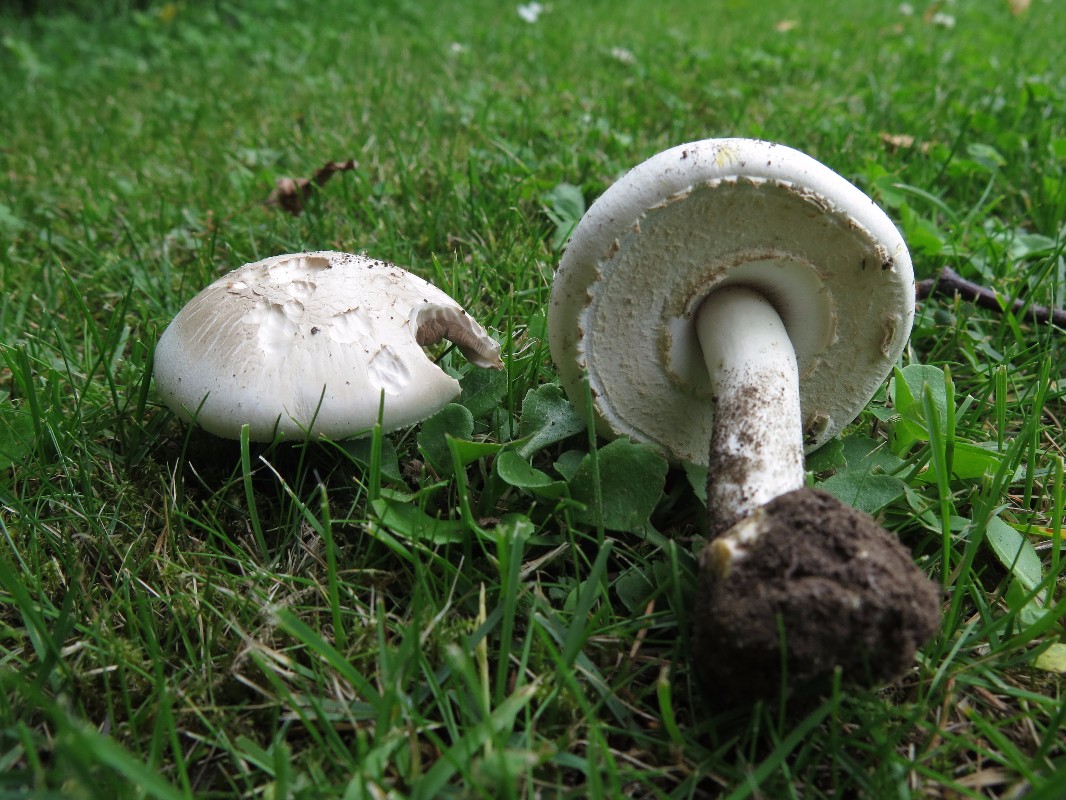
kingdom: Fungi
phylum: Basidiomycota
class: Agaricomycetes
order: Agaricales
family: Agaricaceae
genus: Agaricus
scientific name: Agaricus xanthodermus
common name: karbol-champignon
